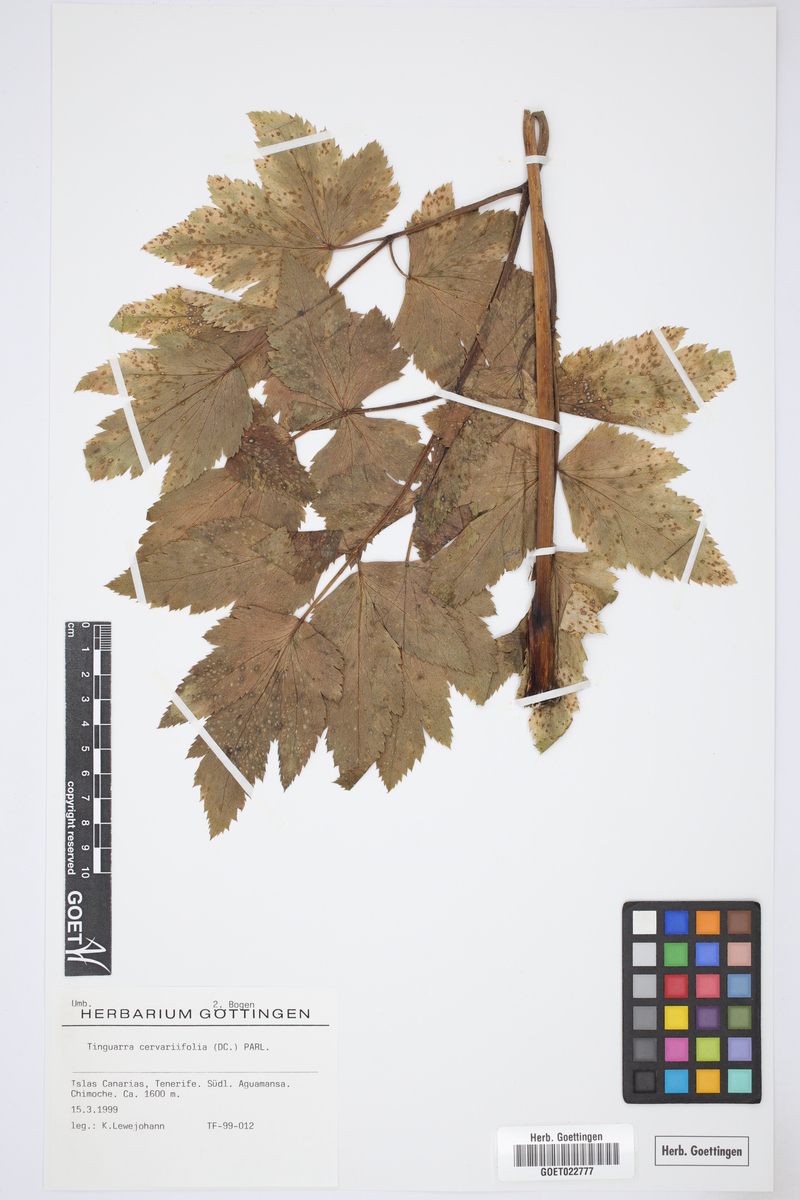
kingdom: Plantae
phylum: Tracheophyta
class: Magnoliopsida
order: Apiales
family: Apiaceae
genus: Athamanta
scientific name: Athamanta cervariifolia
